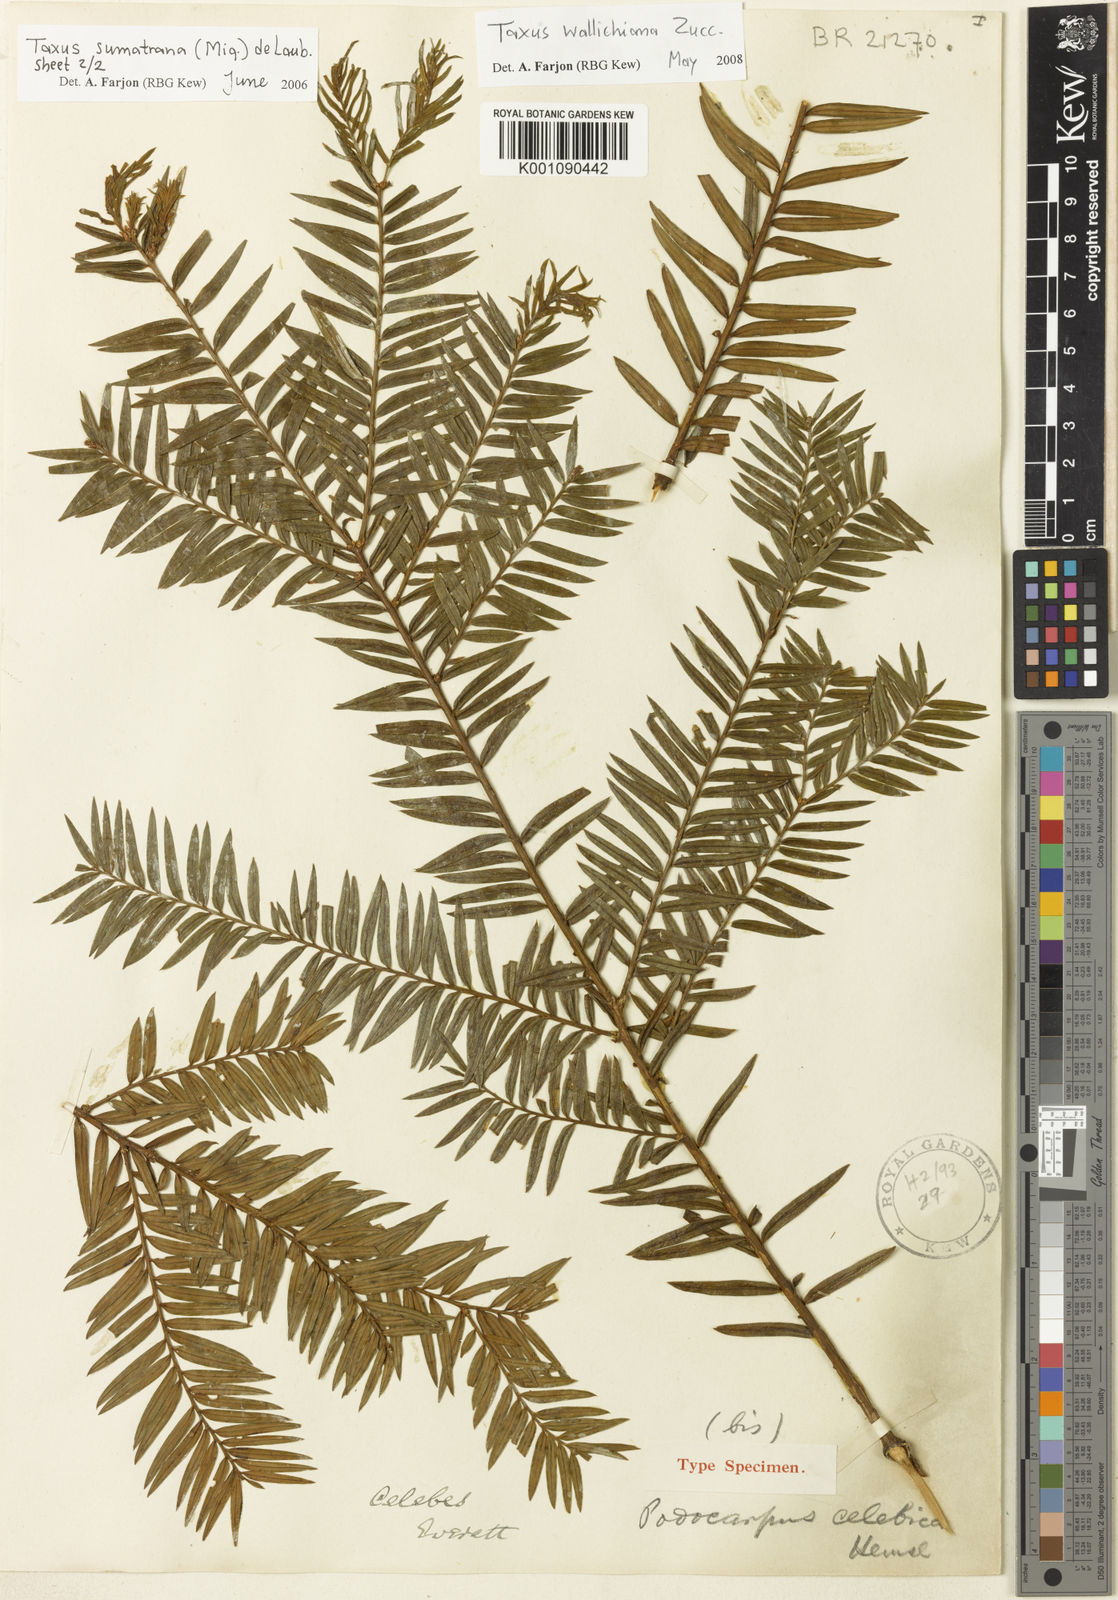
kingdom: Plantae
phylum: Tracheophyta
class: Pinopsida
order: Pinales
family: Taxaceae
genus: Taxus
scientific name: Taxus wallichiana
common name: Himalayan yew
